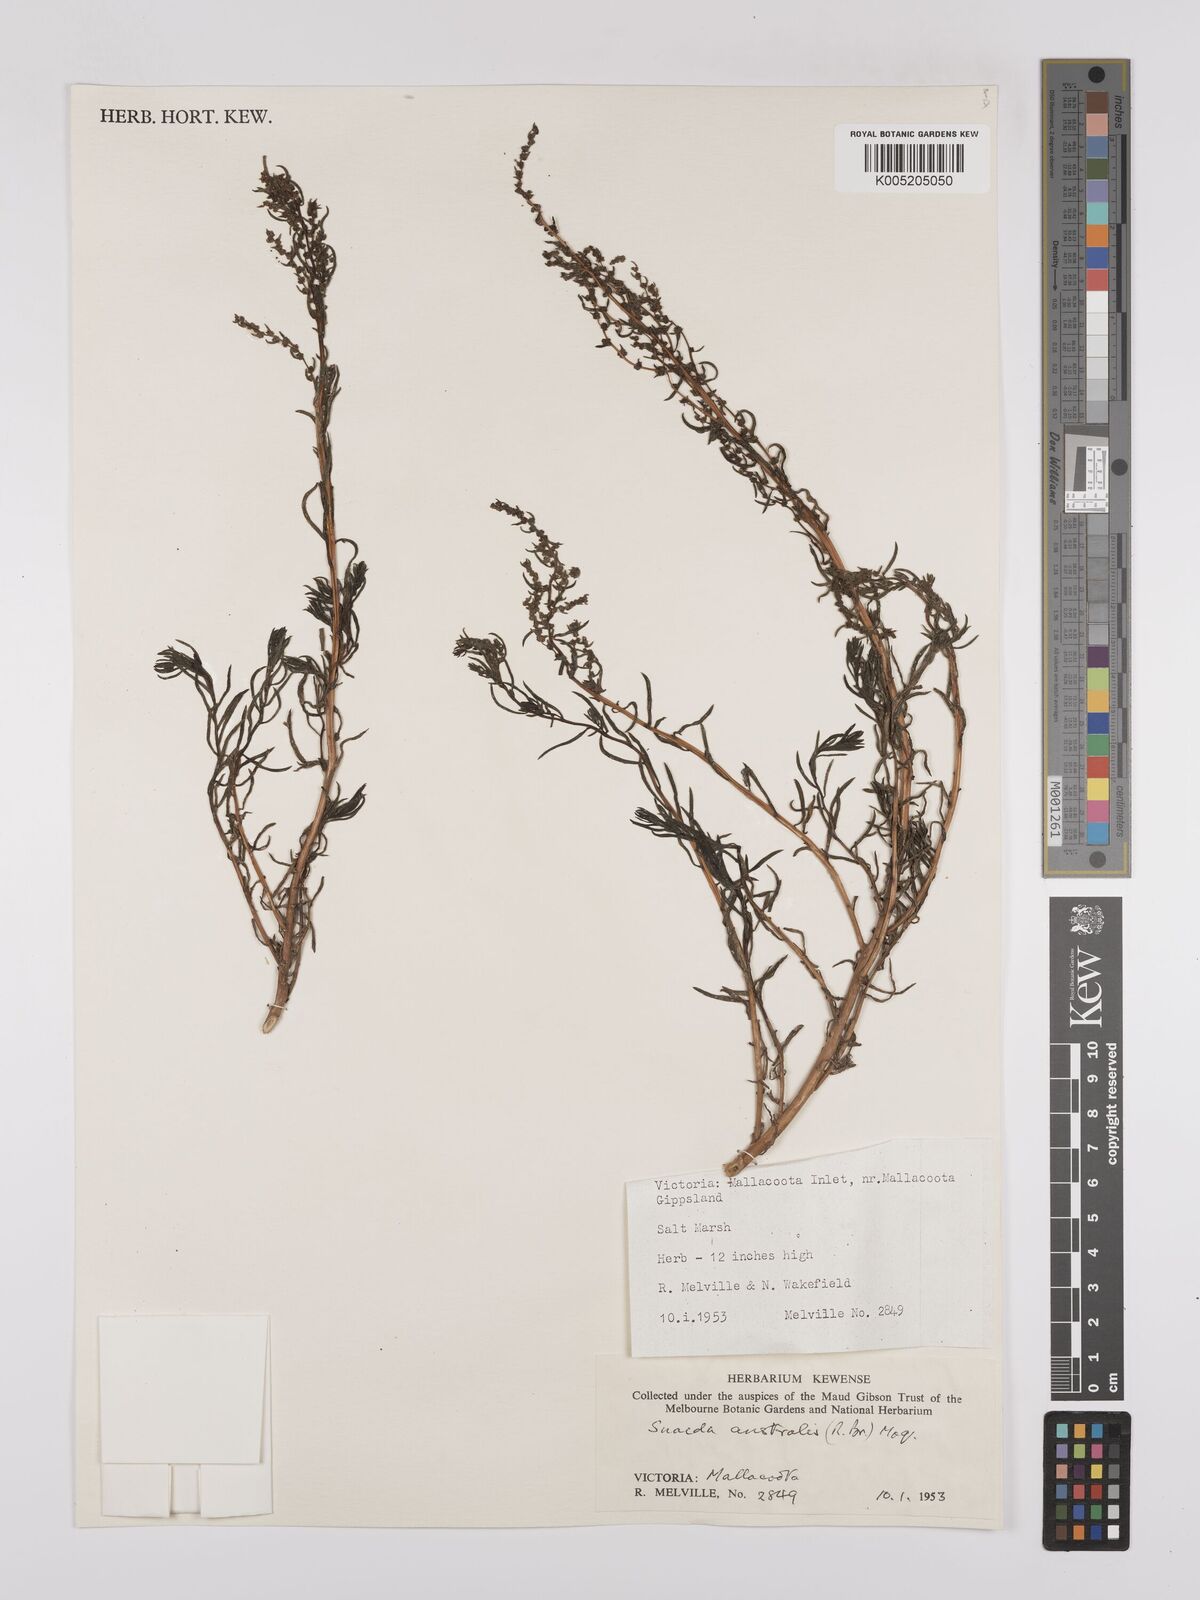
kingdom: Plantae
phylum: Tracheophyta
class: Magnoliopsida
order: Caryophyllales
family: Amaranthaceae
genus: Suaeda
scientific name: Suaeda australis
